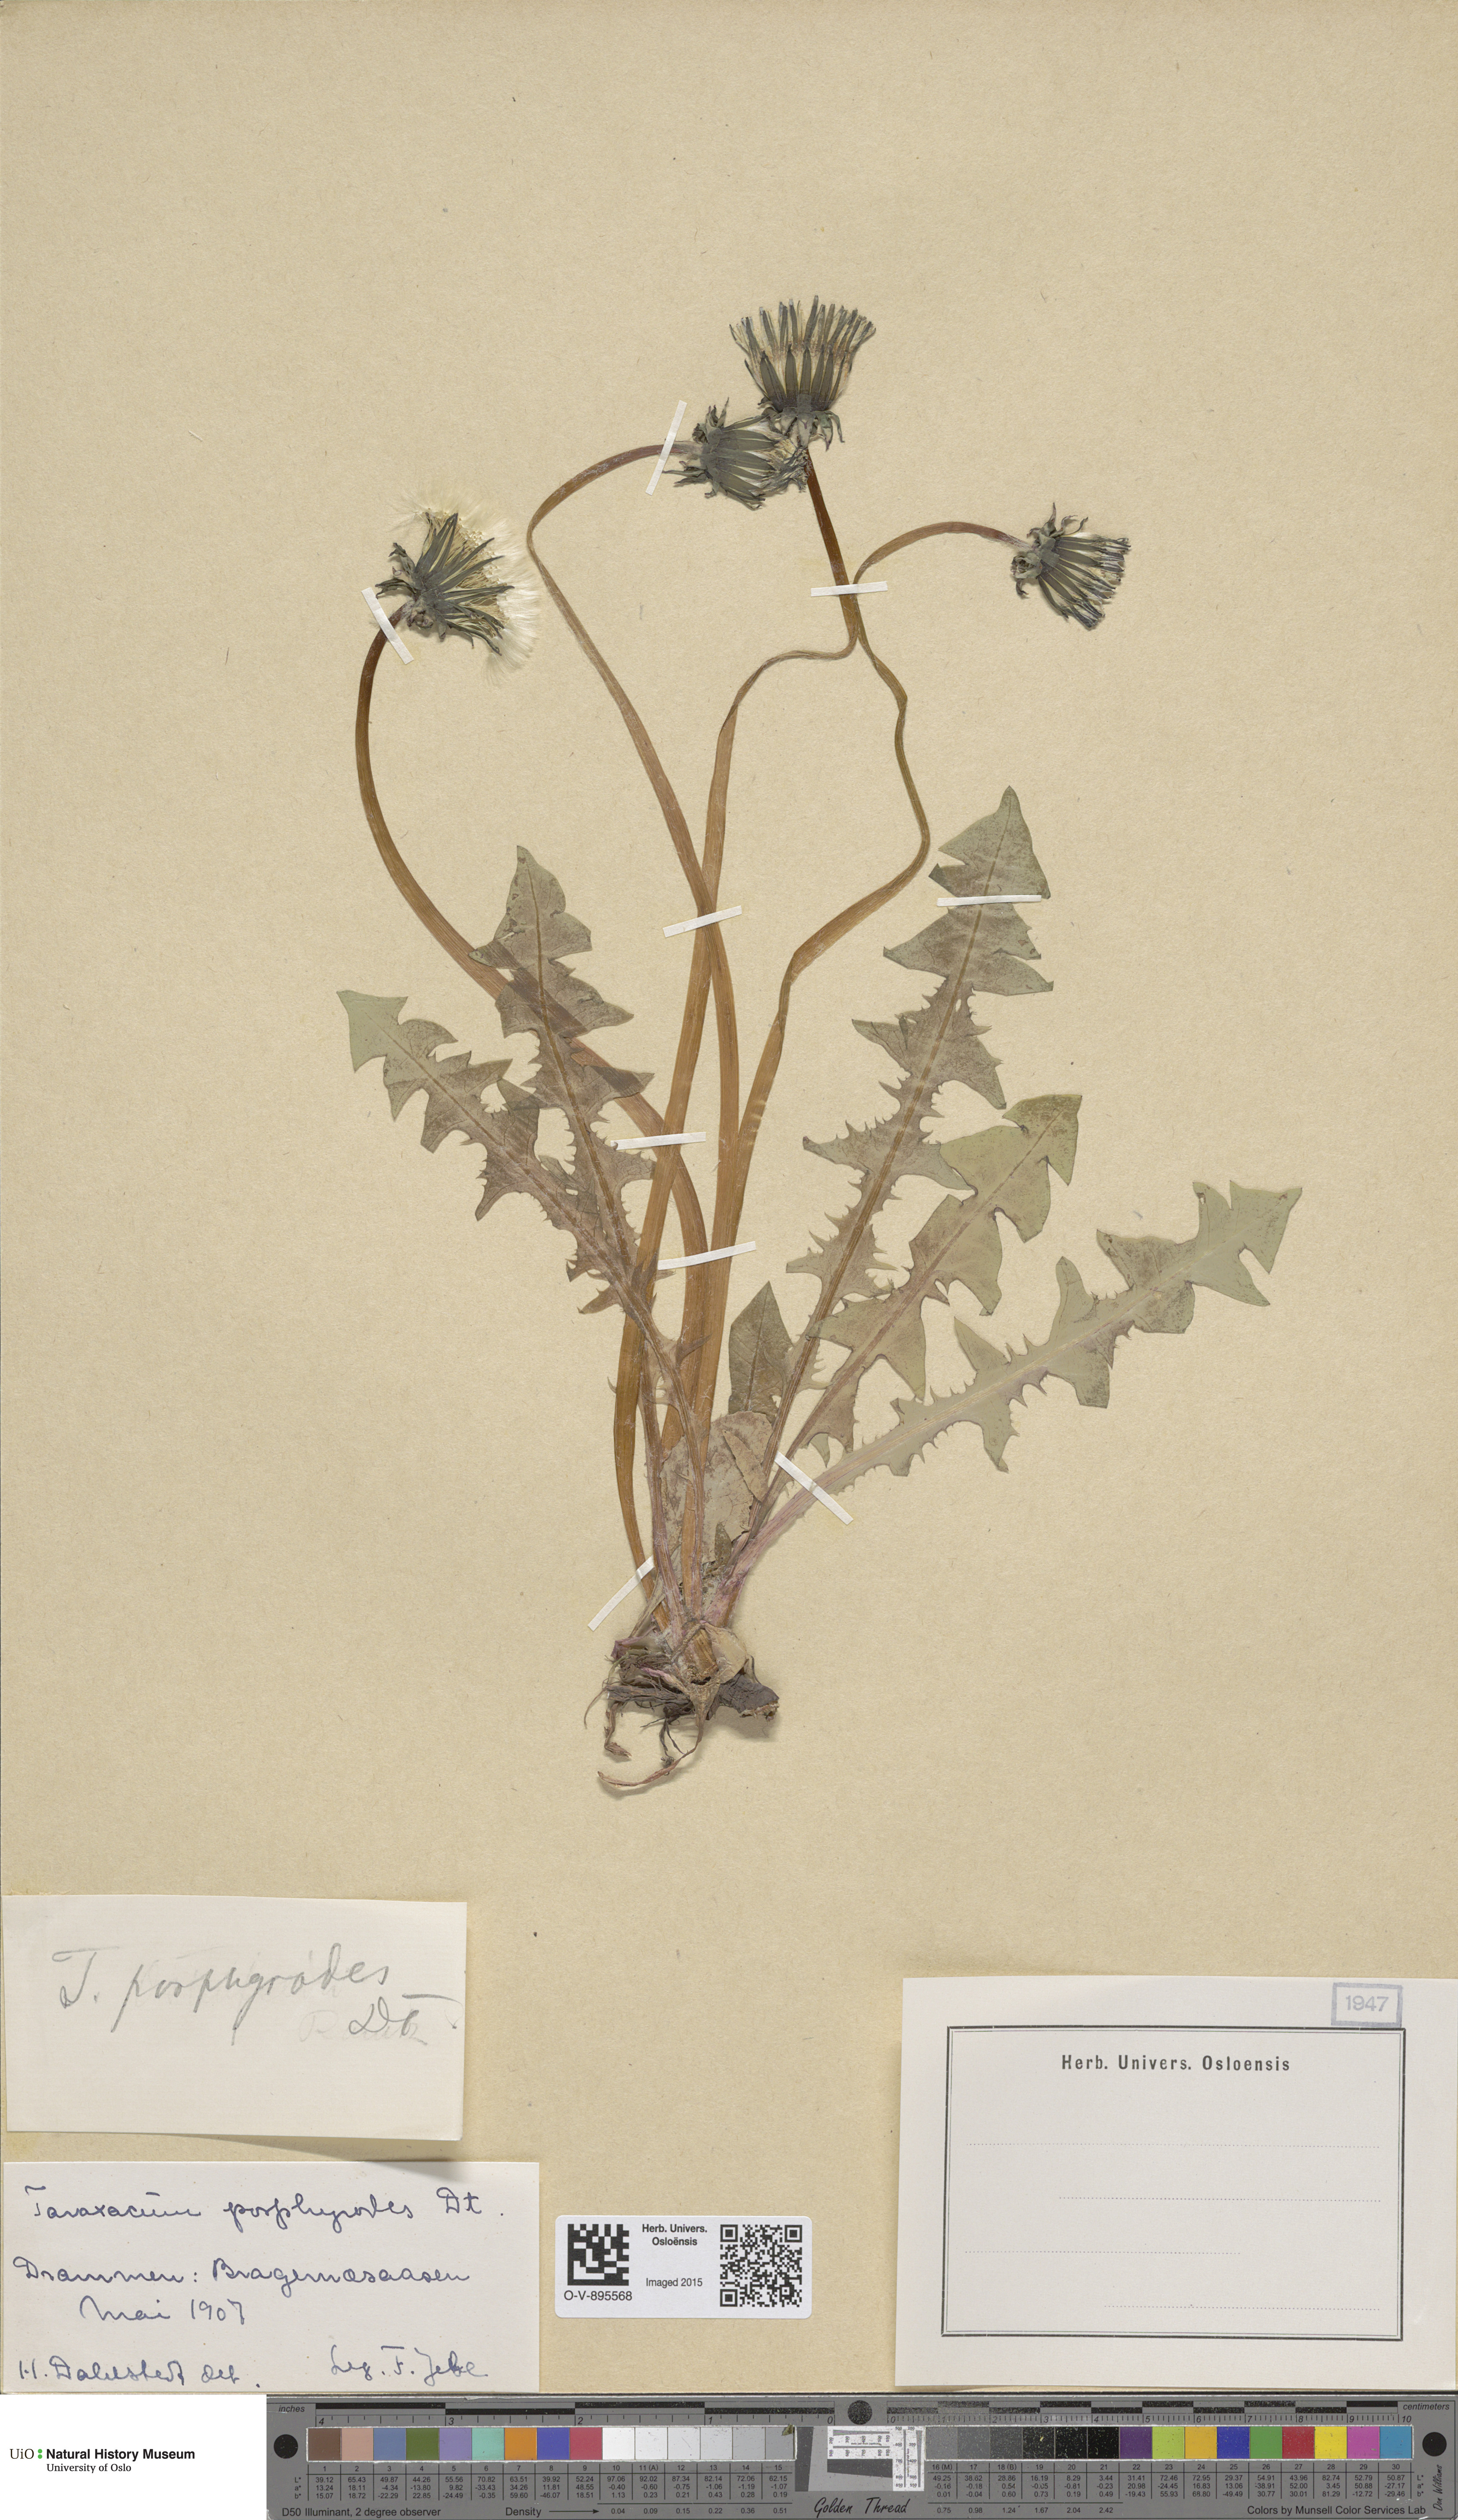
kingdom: Plantae
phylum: Tracheophyta
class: Magnoliopsida
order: Asterales
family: Asteraceae
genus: Taraxacum
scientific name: Taraxacum
